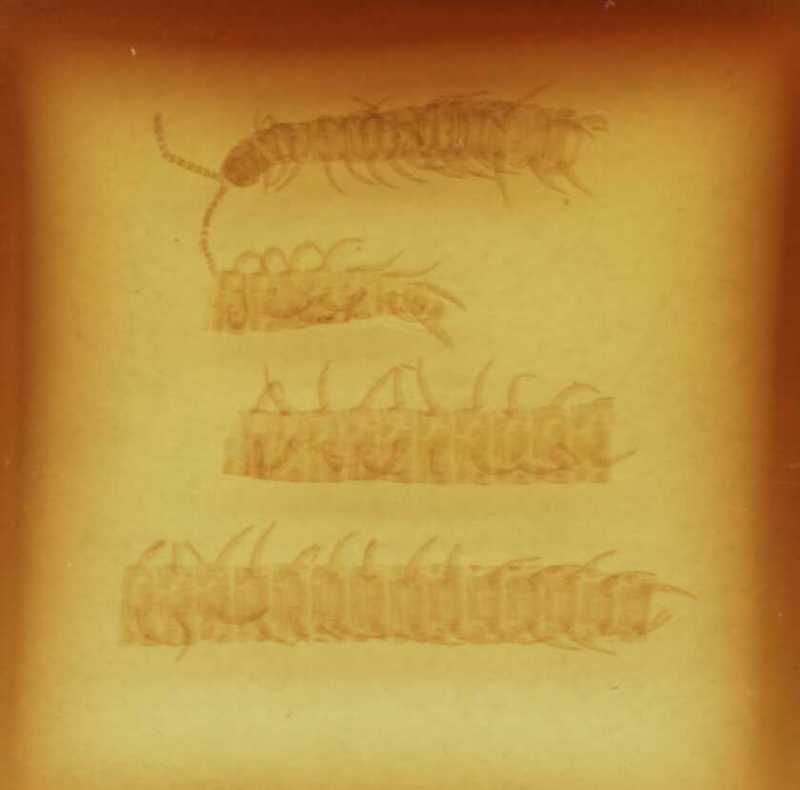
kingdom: Animalia
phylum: Arthropoda
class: Chilopoda
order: Geophilomorpha
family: Linotaeniidae
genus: Strigamia
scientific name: Strigamia transsilvanica
